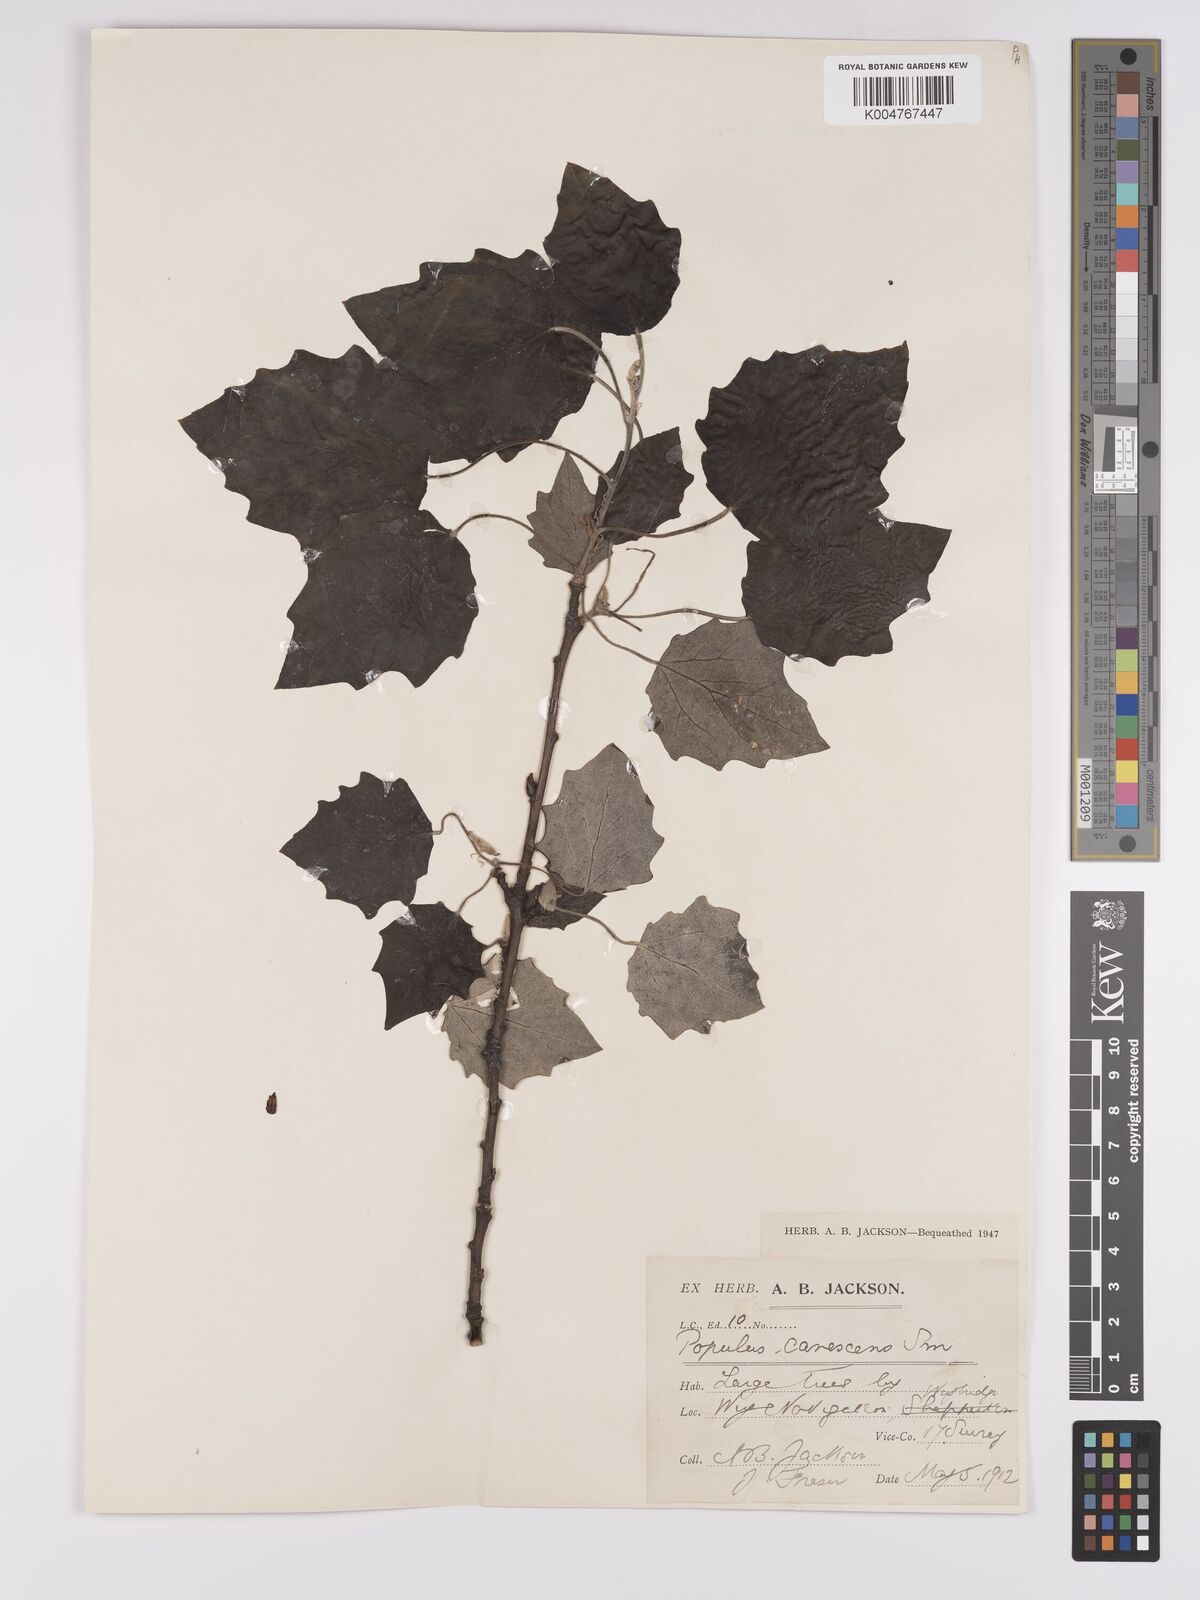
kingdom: Plantae
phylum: Tracheophyta
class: Magnoliopsida
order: Malpighiales
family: Salicaceae
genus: Populus
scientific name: Populus canescens
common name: Gray poplar
